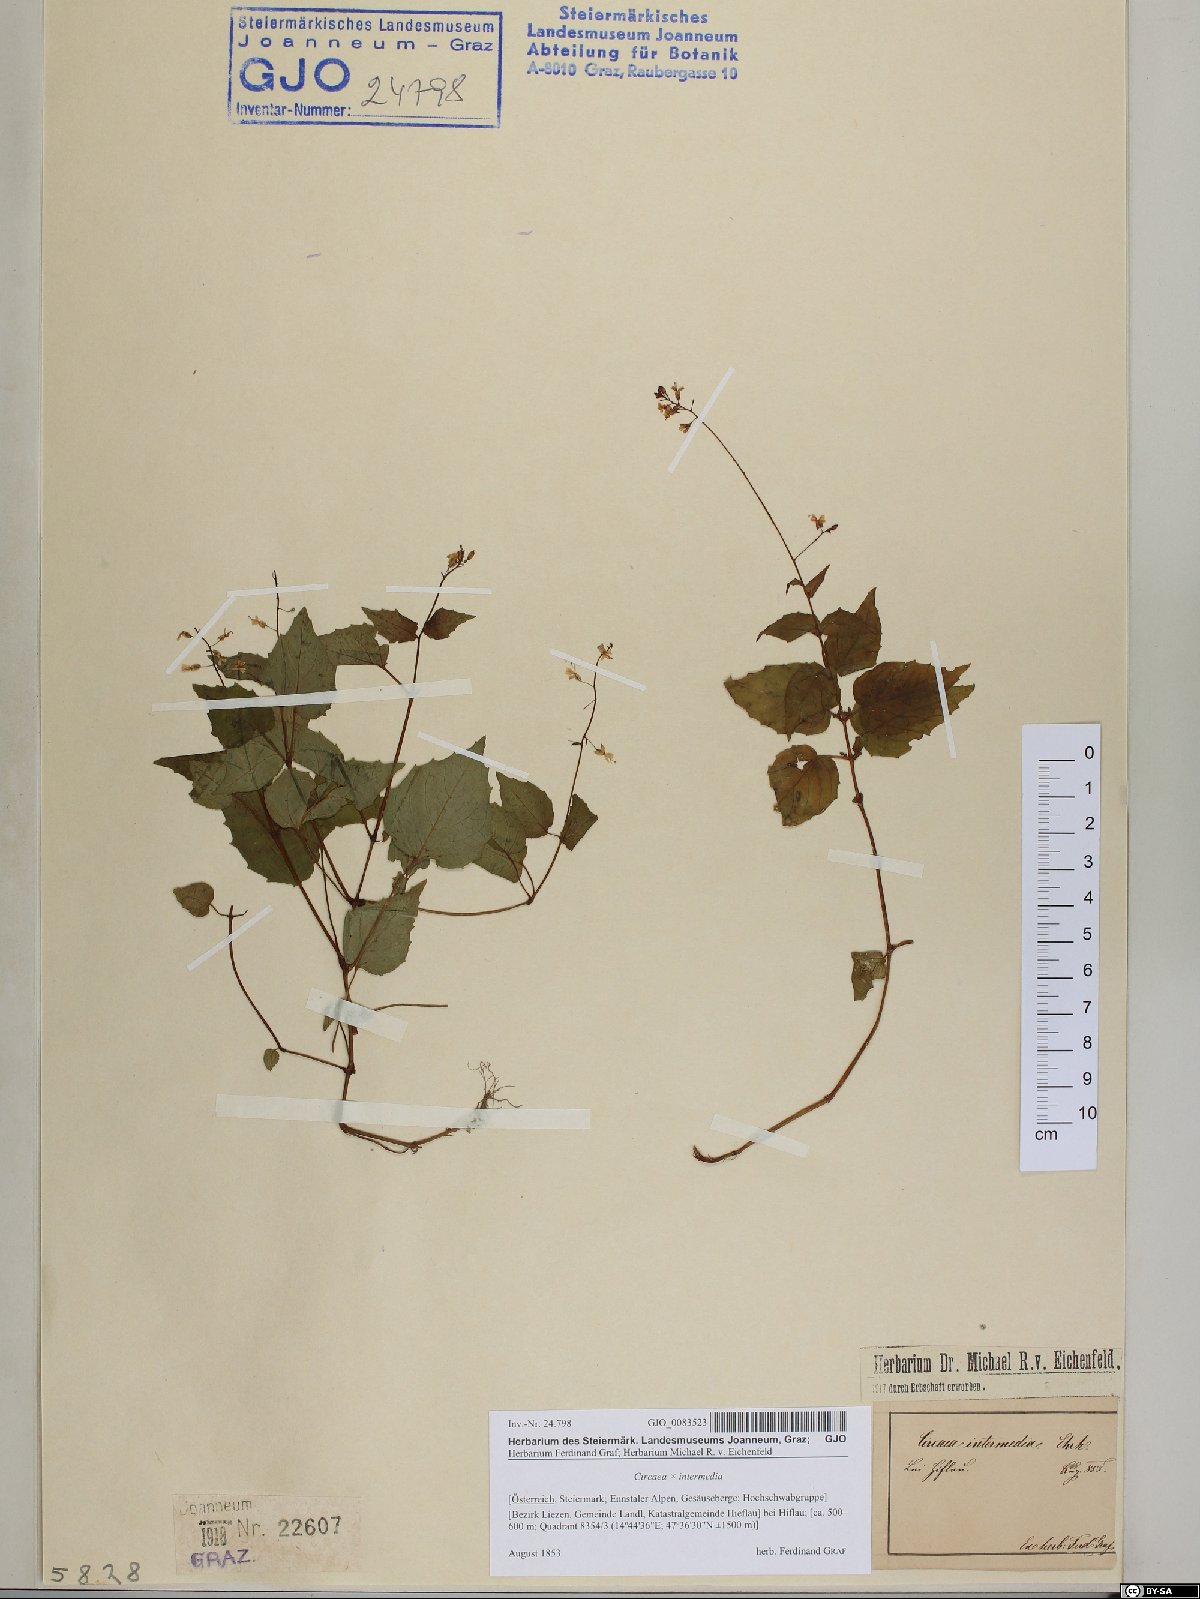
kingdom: Plantae
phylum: Tracheophyta
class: Magnoliopsida
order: Myrtales
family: Onagraceae
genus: Circaea
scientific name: Circaea intermedia
